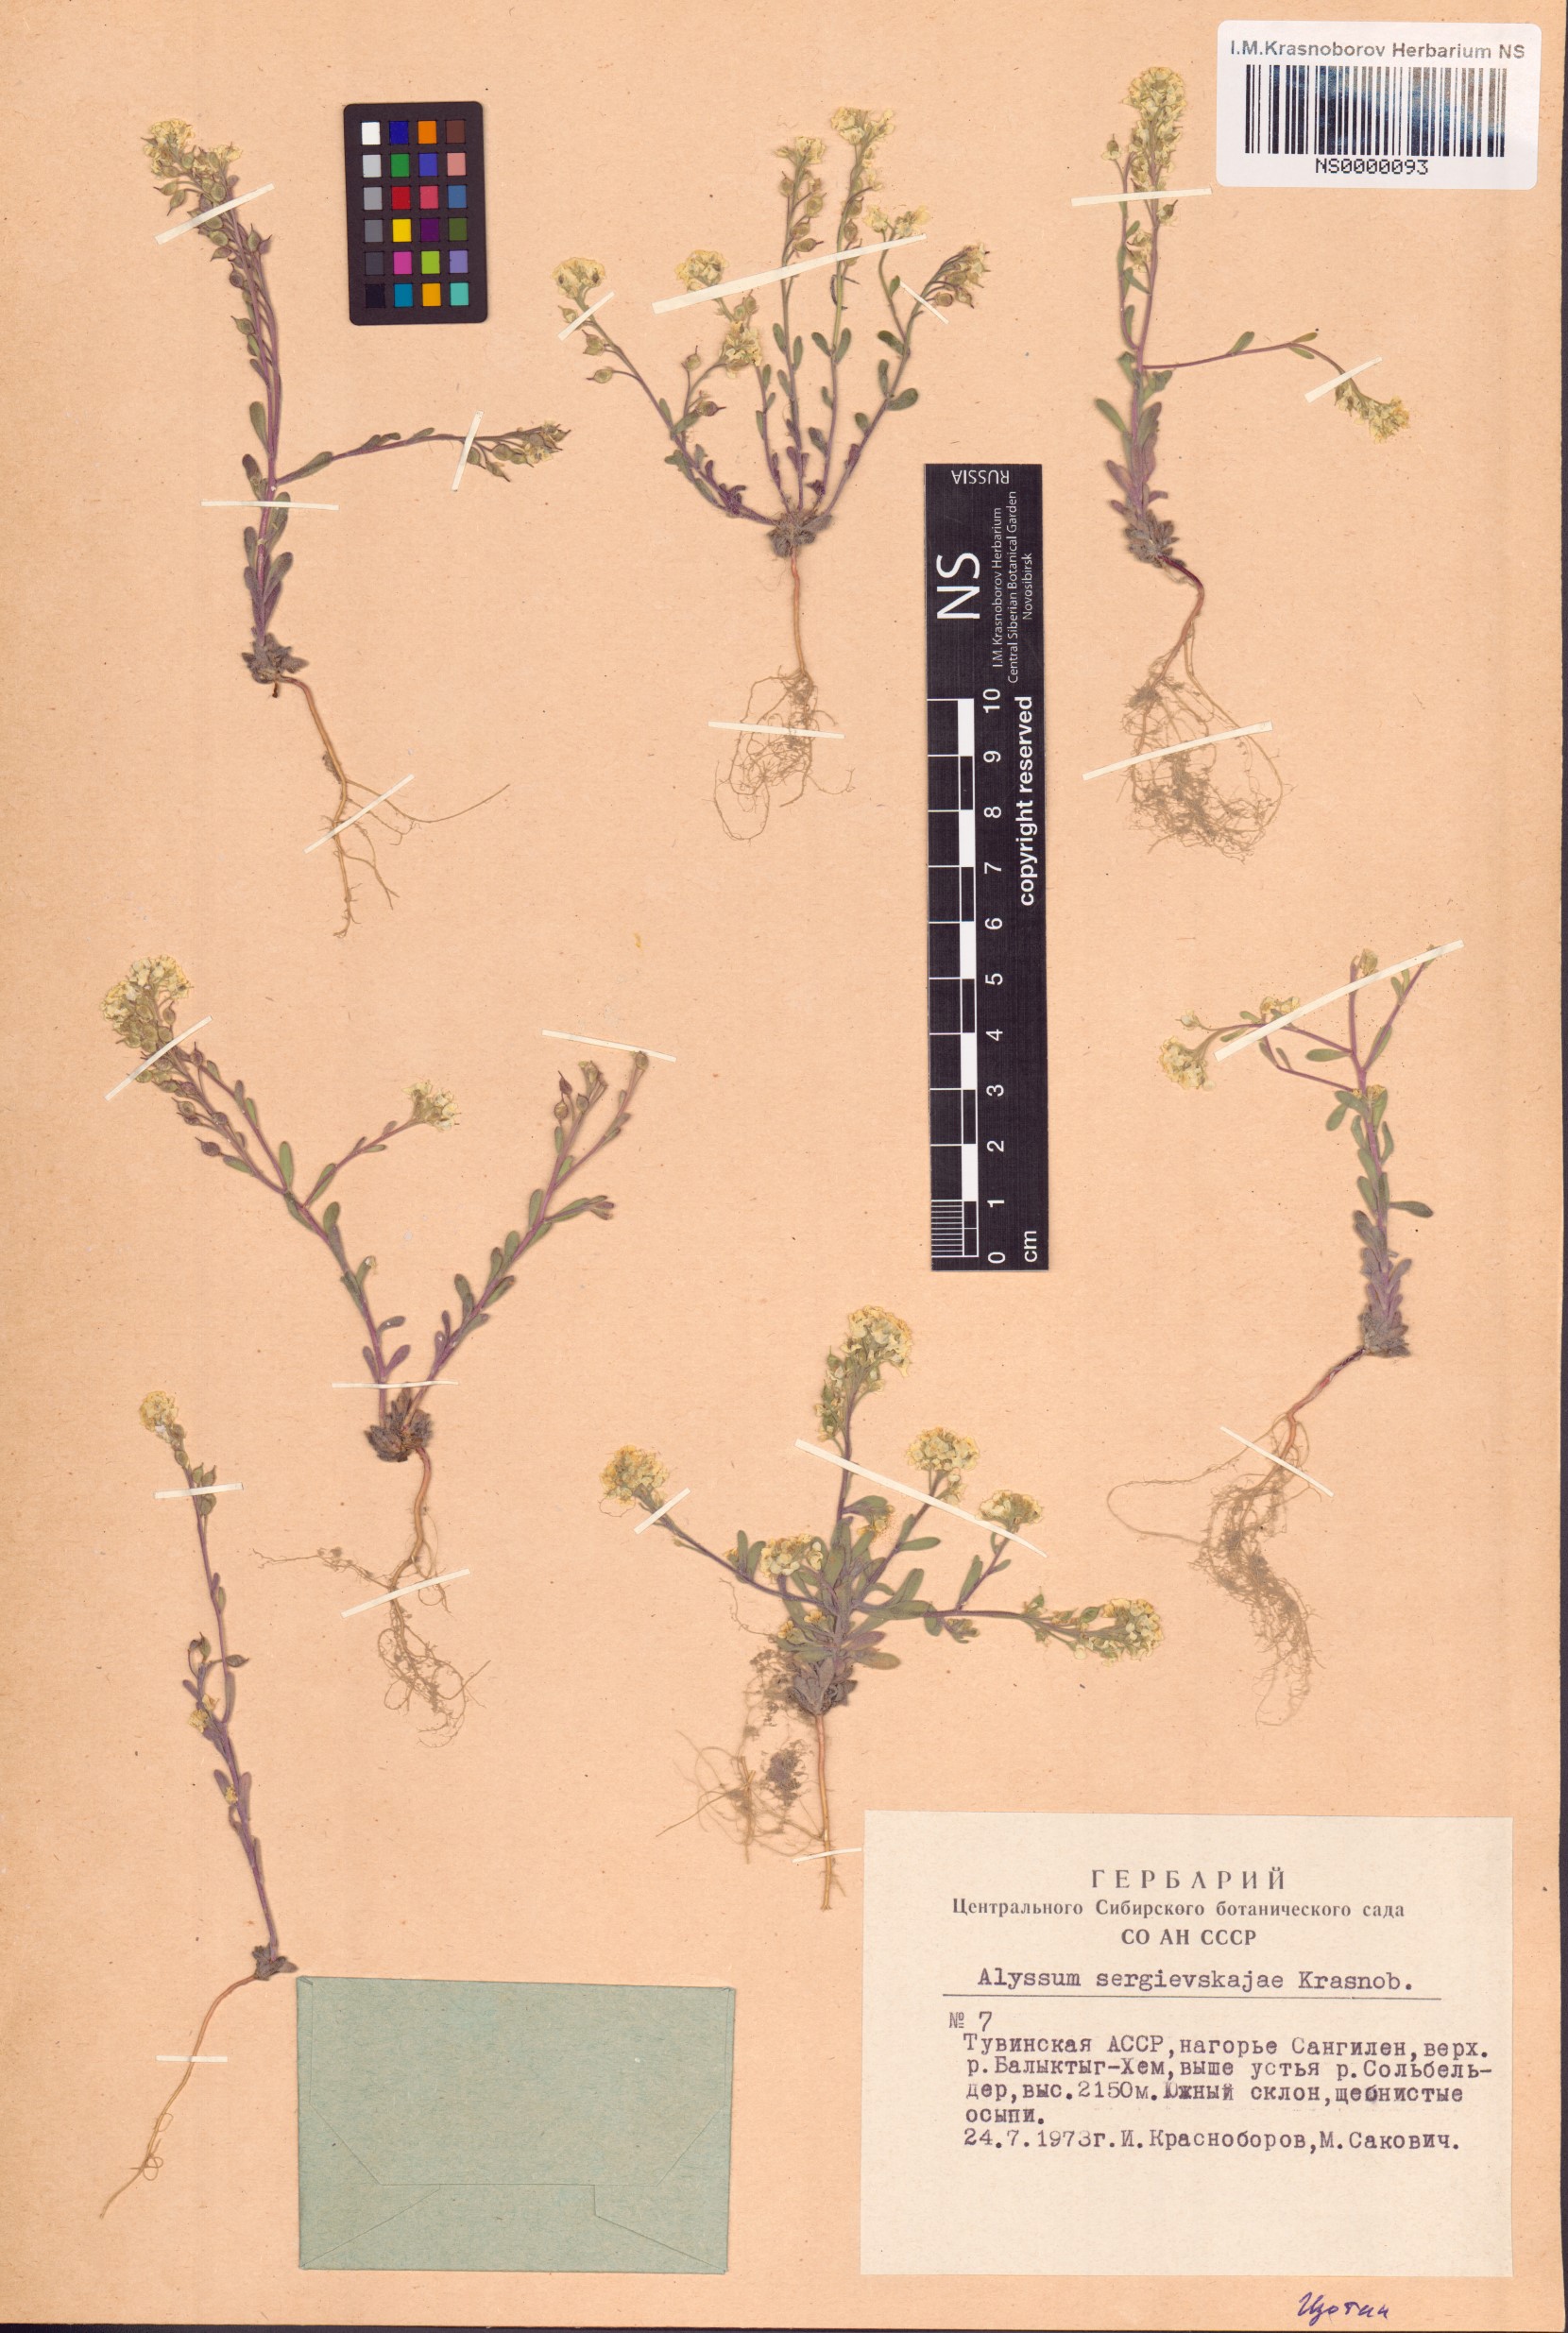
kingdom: Plantae
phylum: Tracheophyta
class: Magnoliopsida
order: Brassicales
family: Brassicaceae
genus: Stevenia
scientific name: Stevenia sergievskajae
